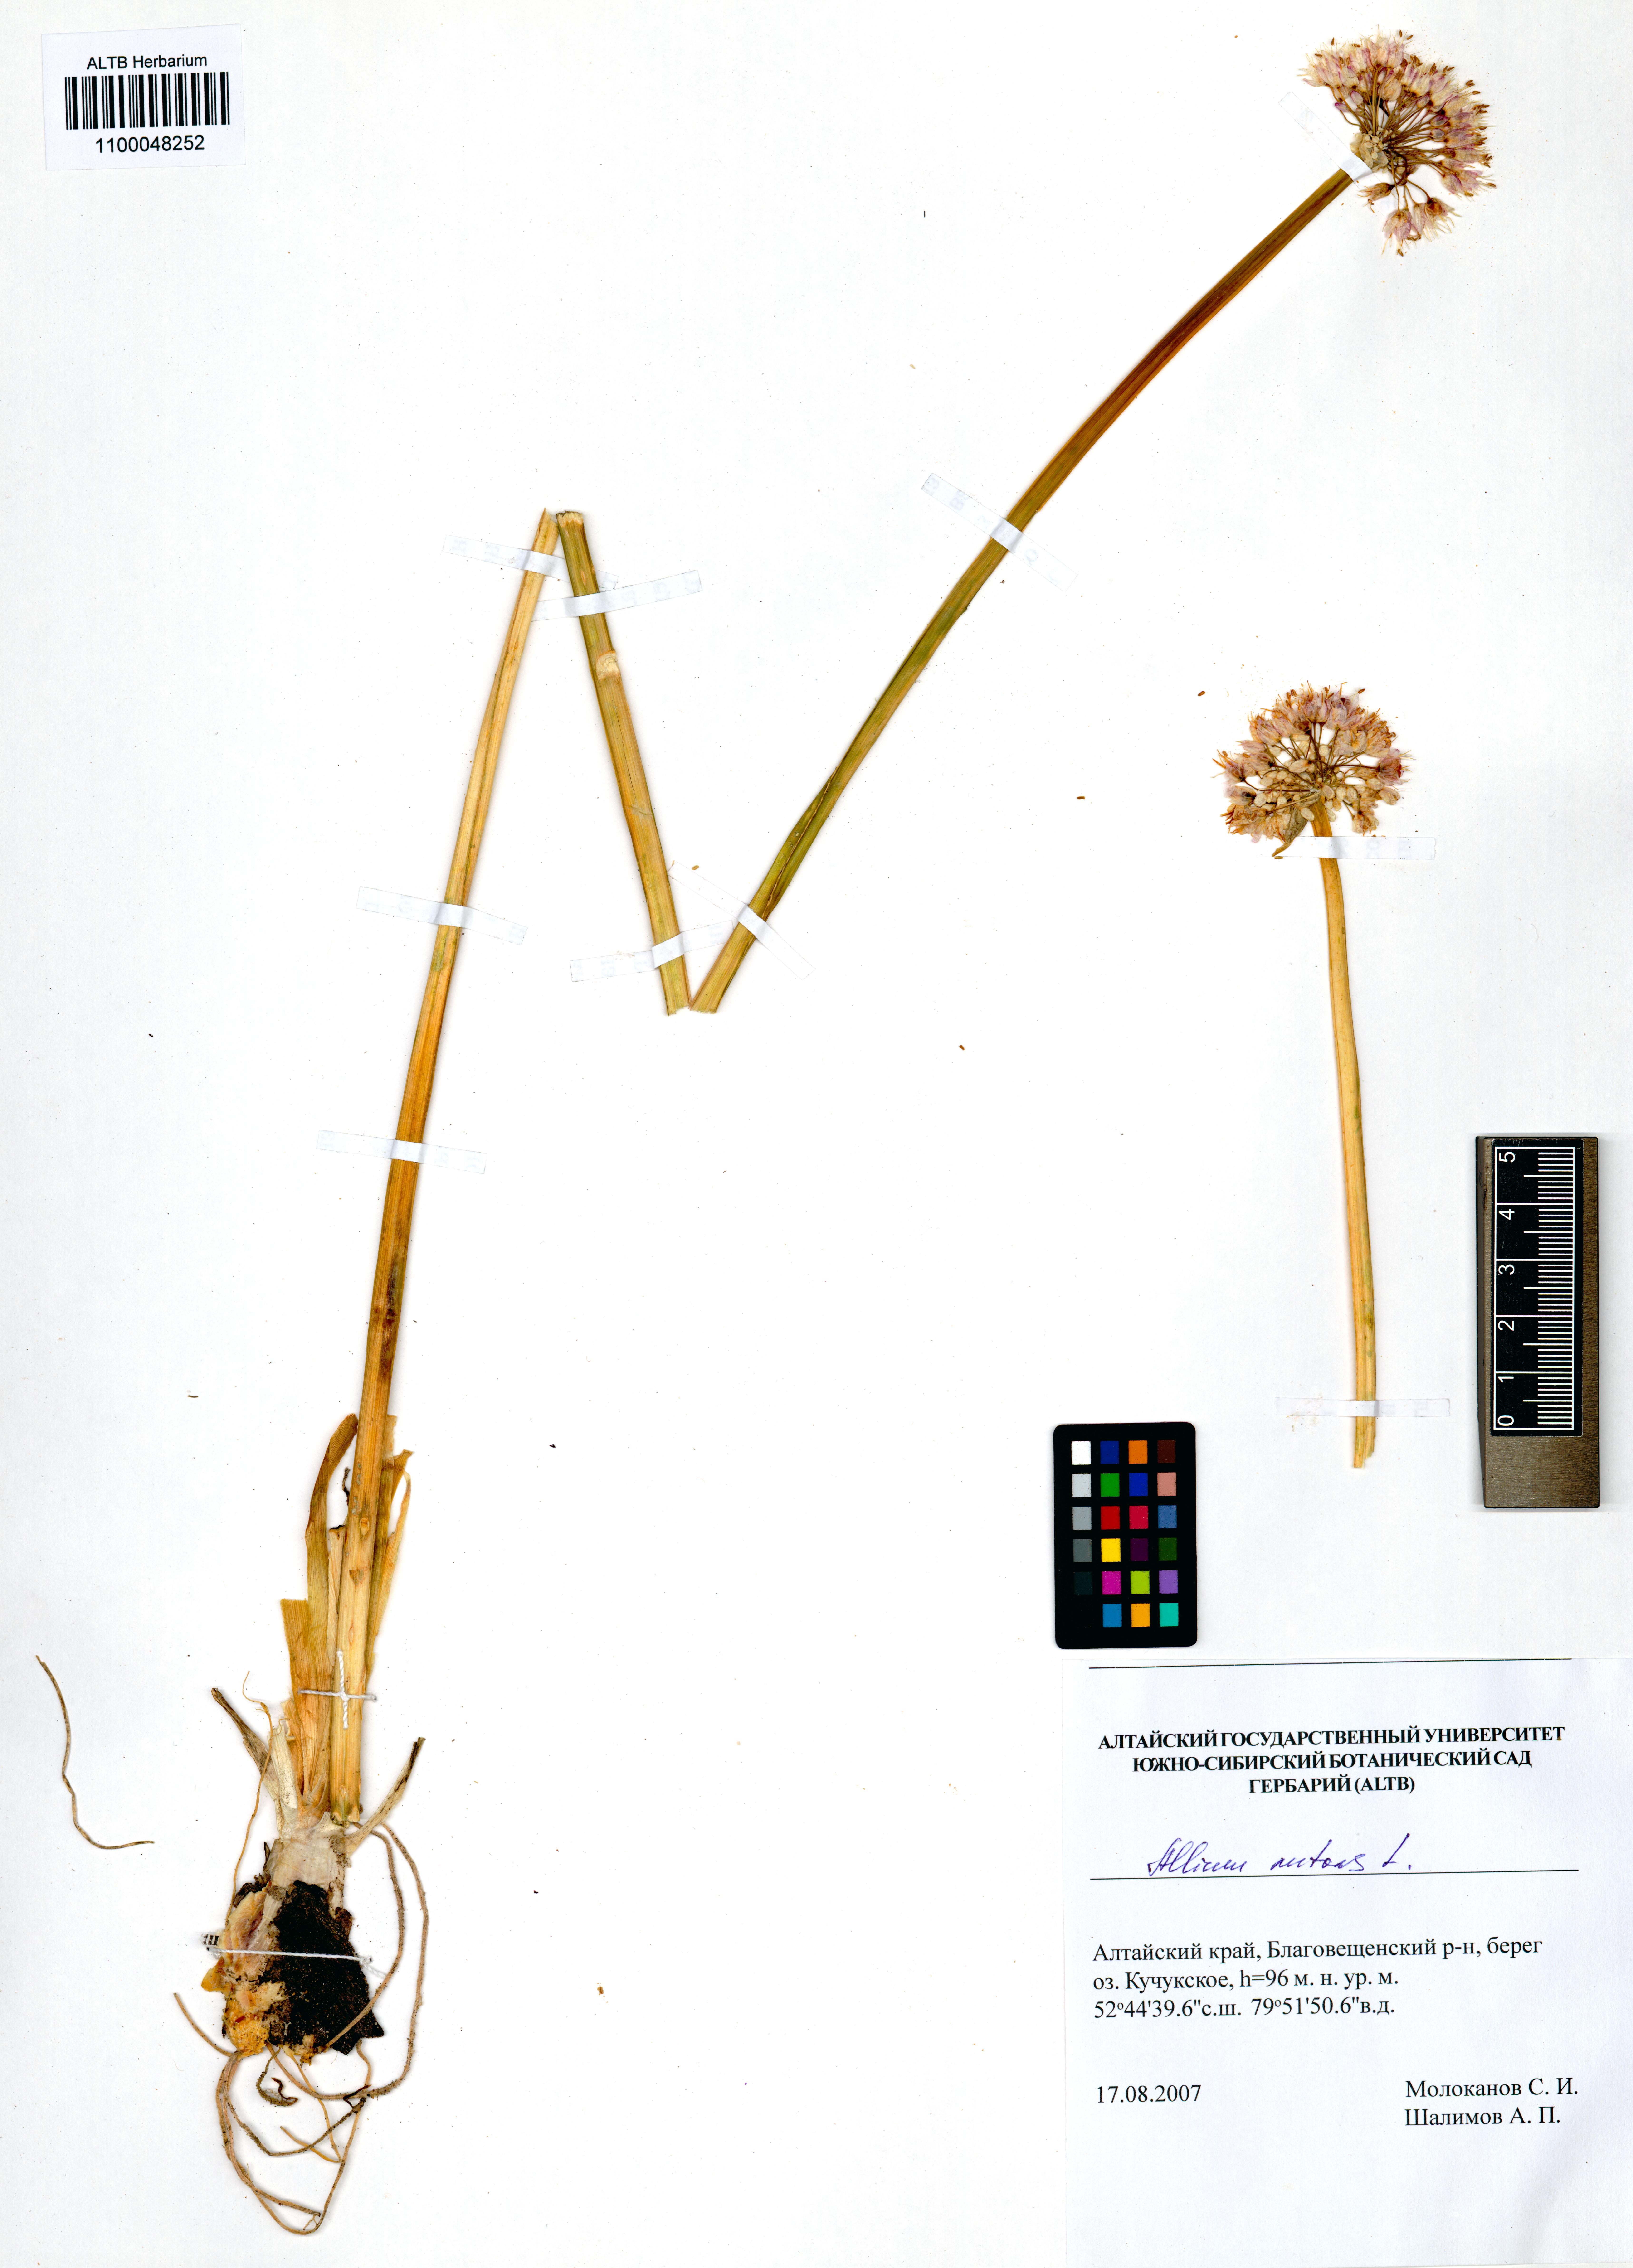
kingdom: Plantae
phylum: Tracheophyta
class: Liliopsida
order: Asparagales
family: Amaryllidaceae
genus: Allium
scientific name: Allium nutans
